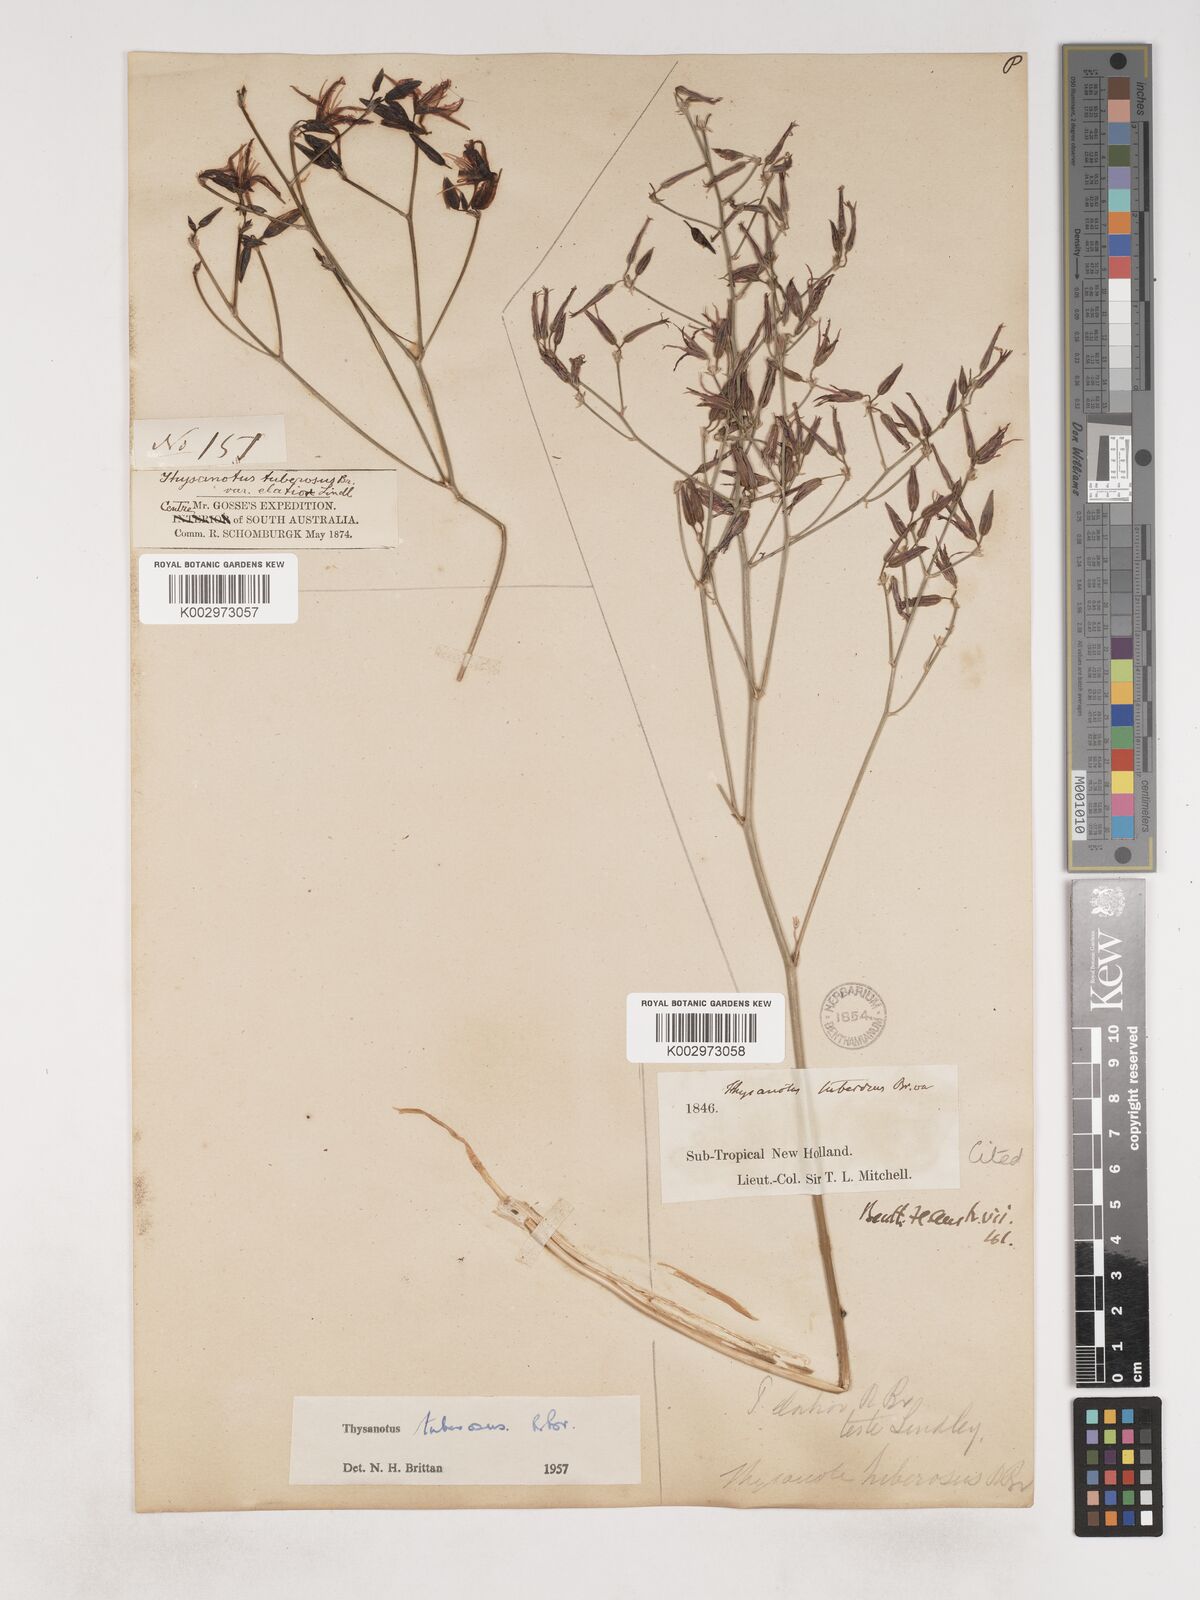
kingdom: Plantae
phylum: Tracheophyta
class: Liliopsida
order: Asparagales
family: Asparagaceae
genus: Thysanotus
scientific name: Thysanotus banksii
